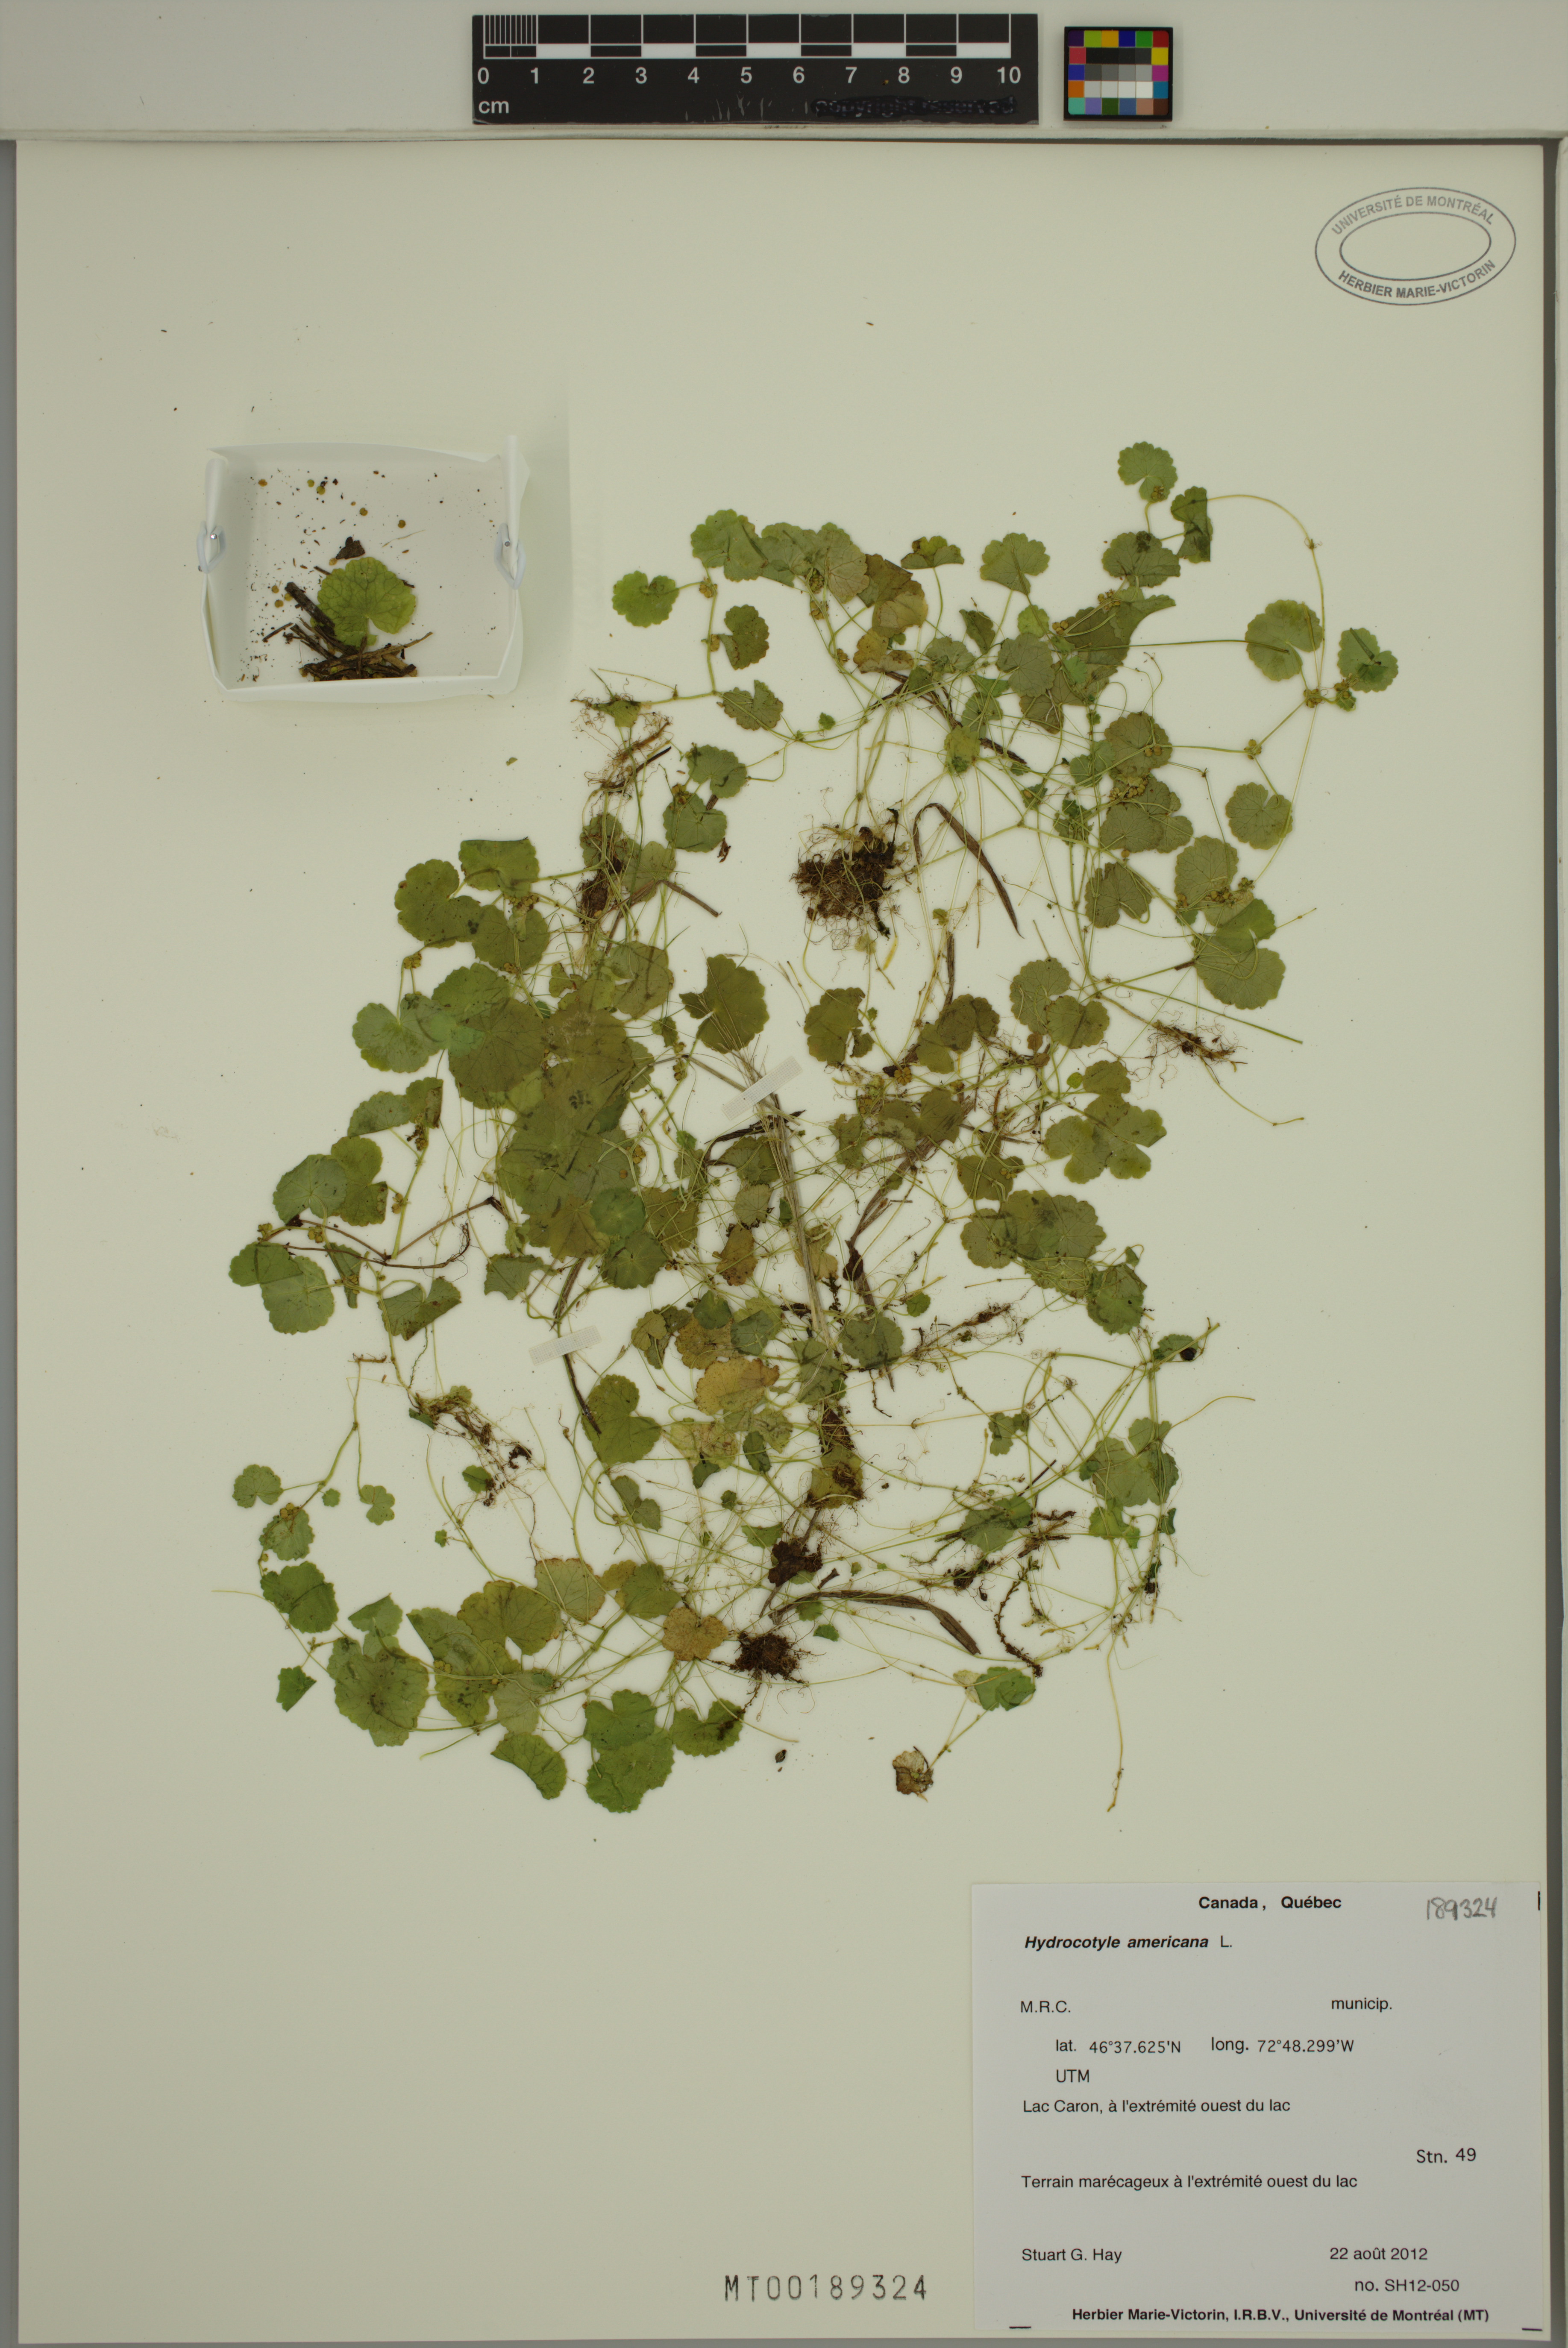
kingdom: Plantae
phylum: Tracheophyta
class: Magnoliopsida
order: Apiales
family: Araliaceae
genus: Hydrocotyle
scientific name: Hydrocotyle americana
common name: American water-pennywort
